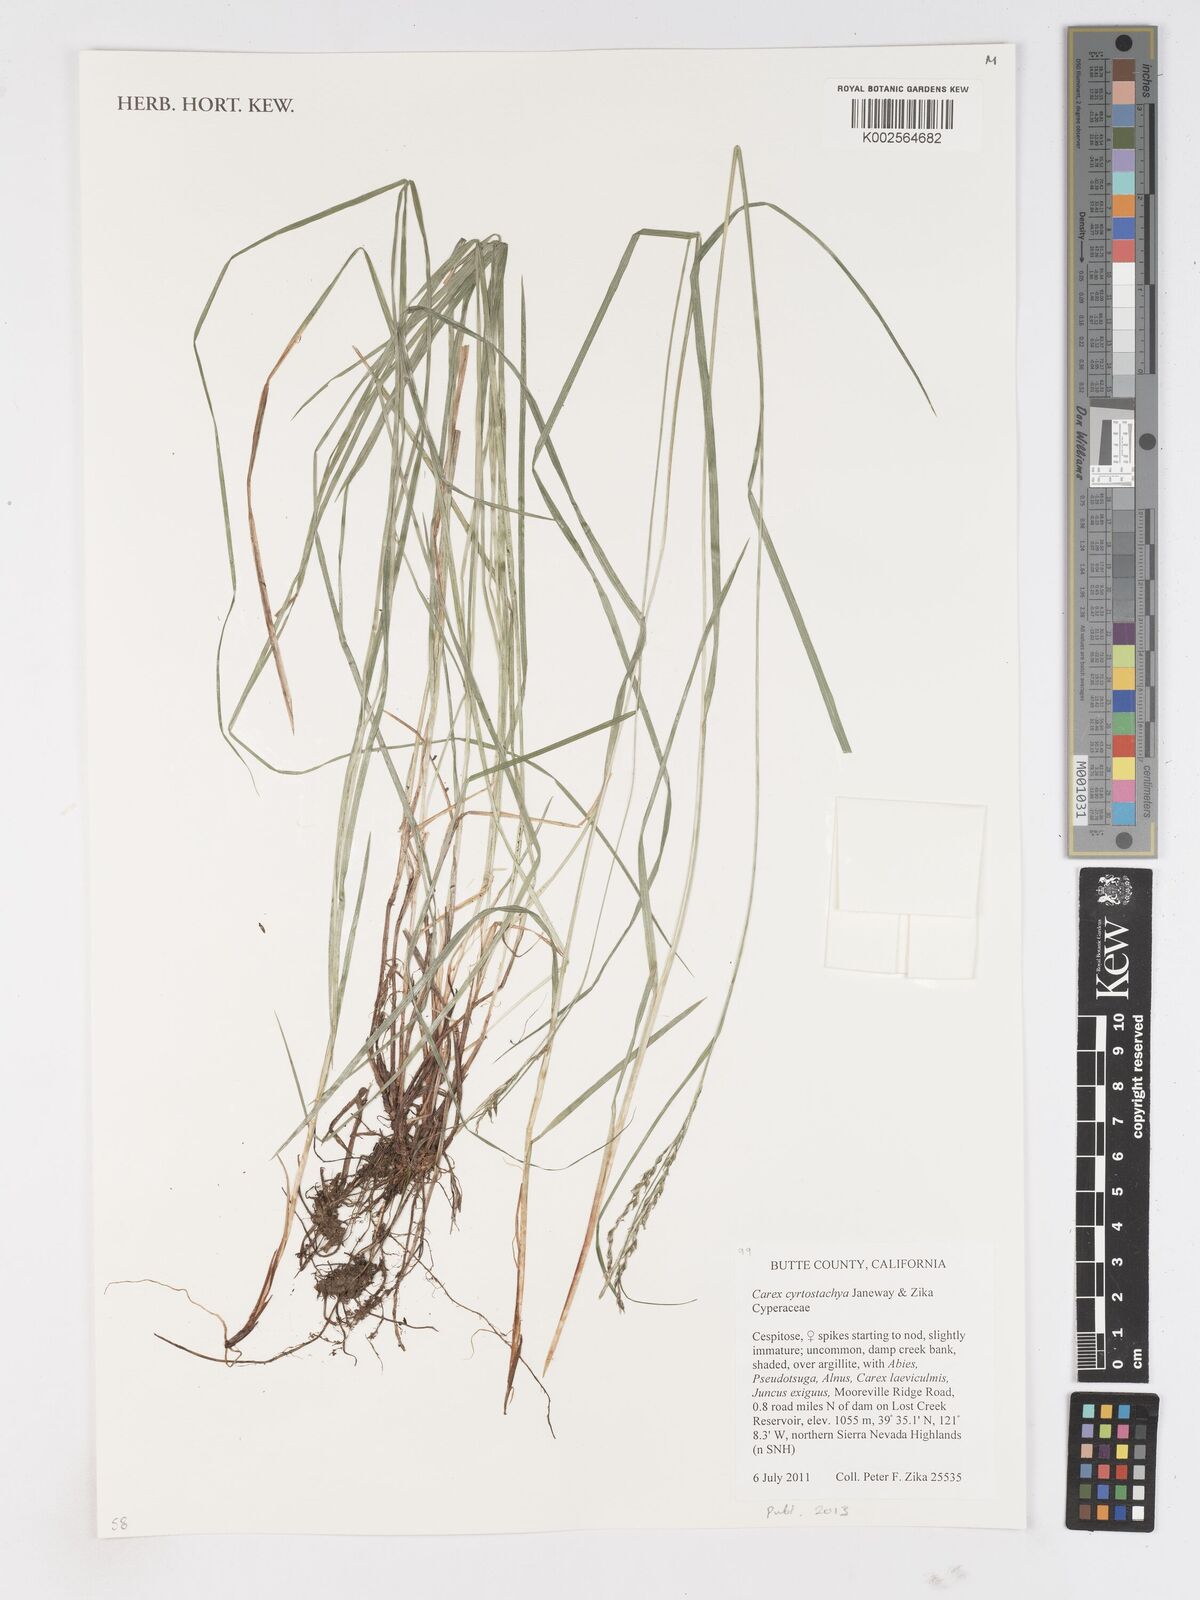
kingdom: Plantae
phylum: Tracheophyta
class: Liliopsida
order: Poales
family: Cyperaceae
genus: Carex
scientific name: Carex cyrtostachya
